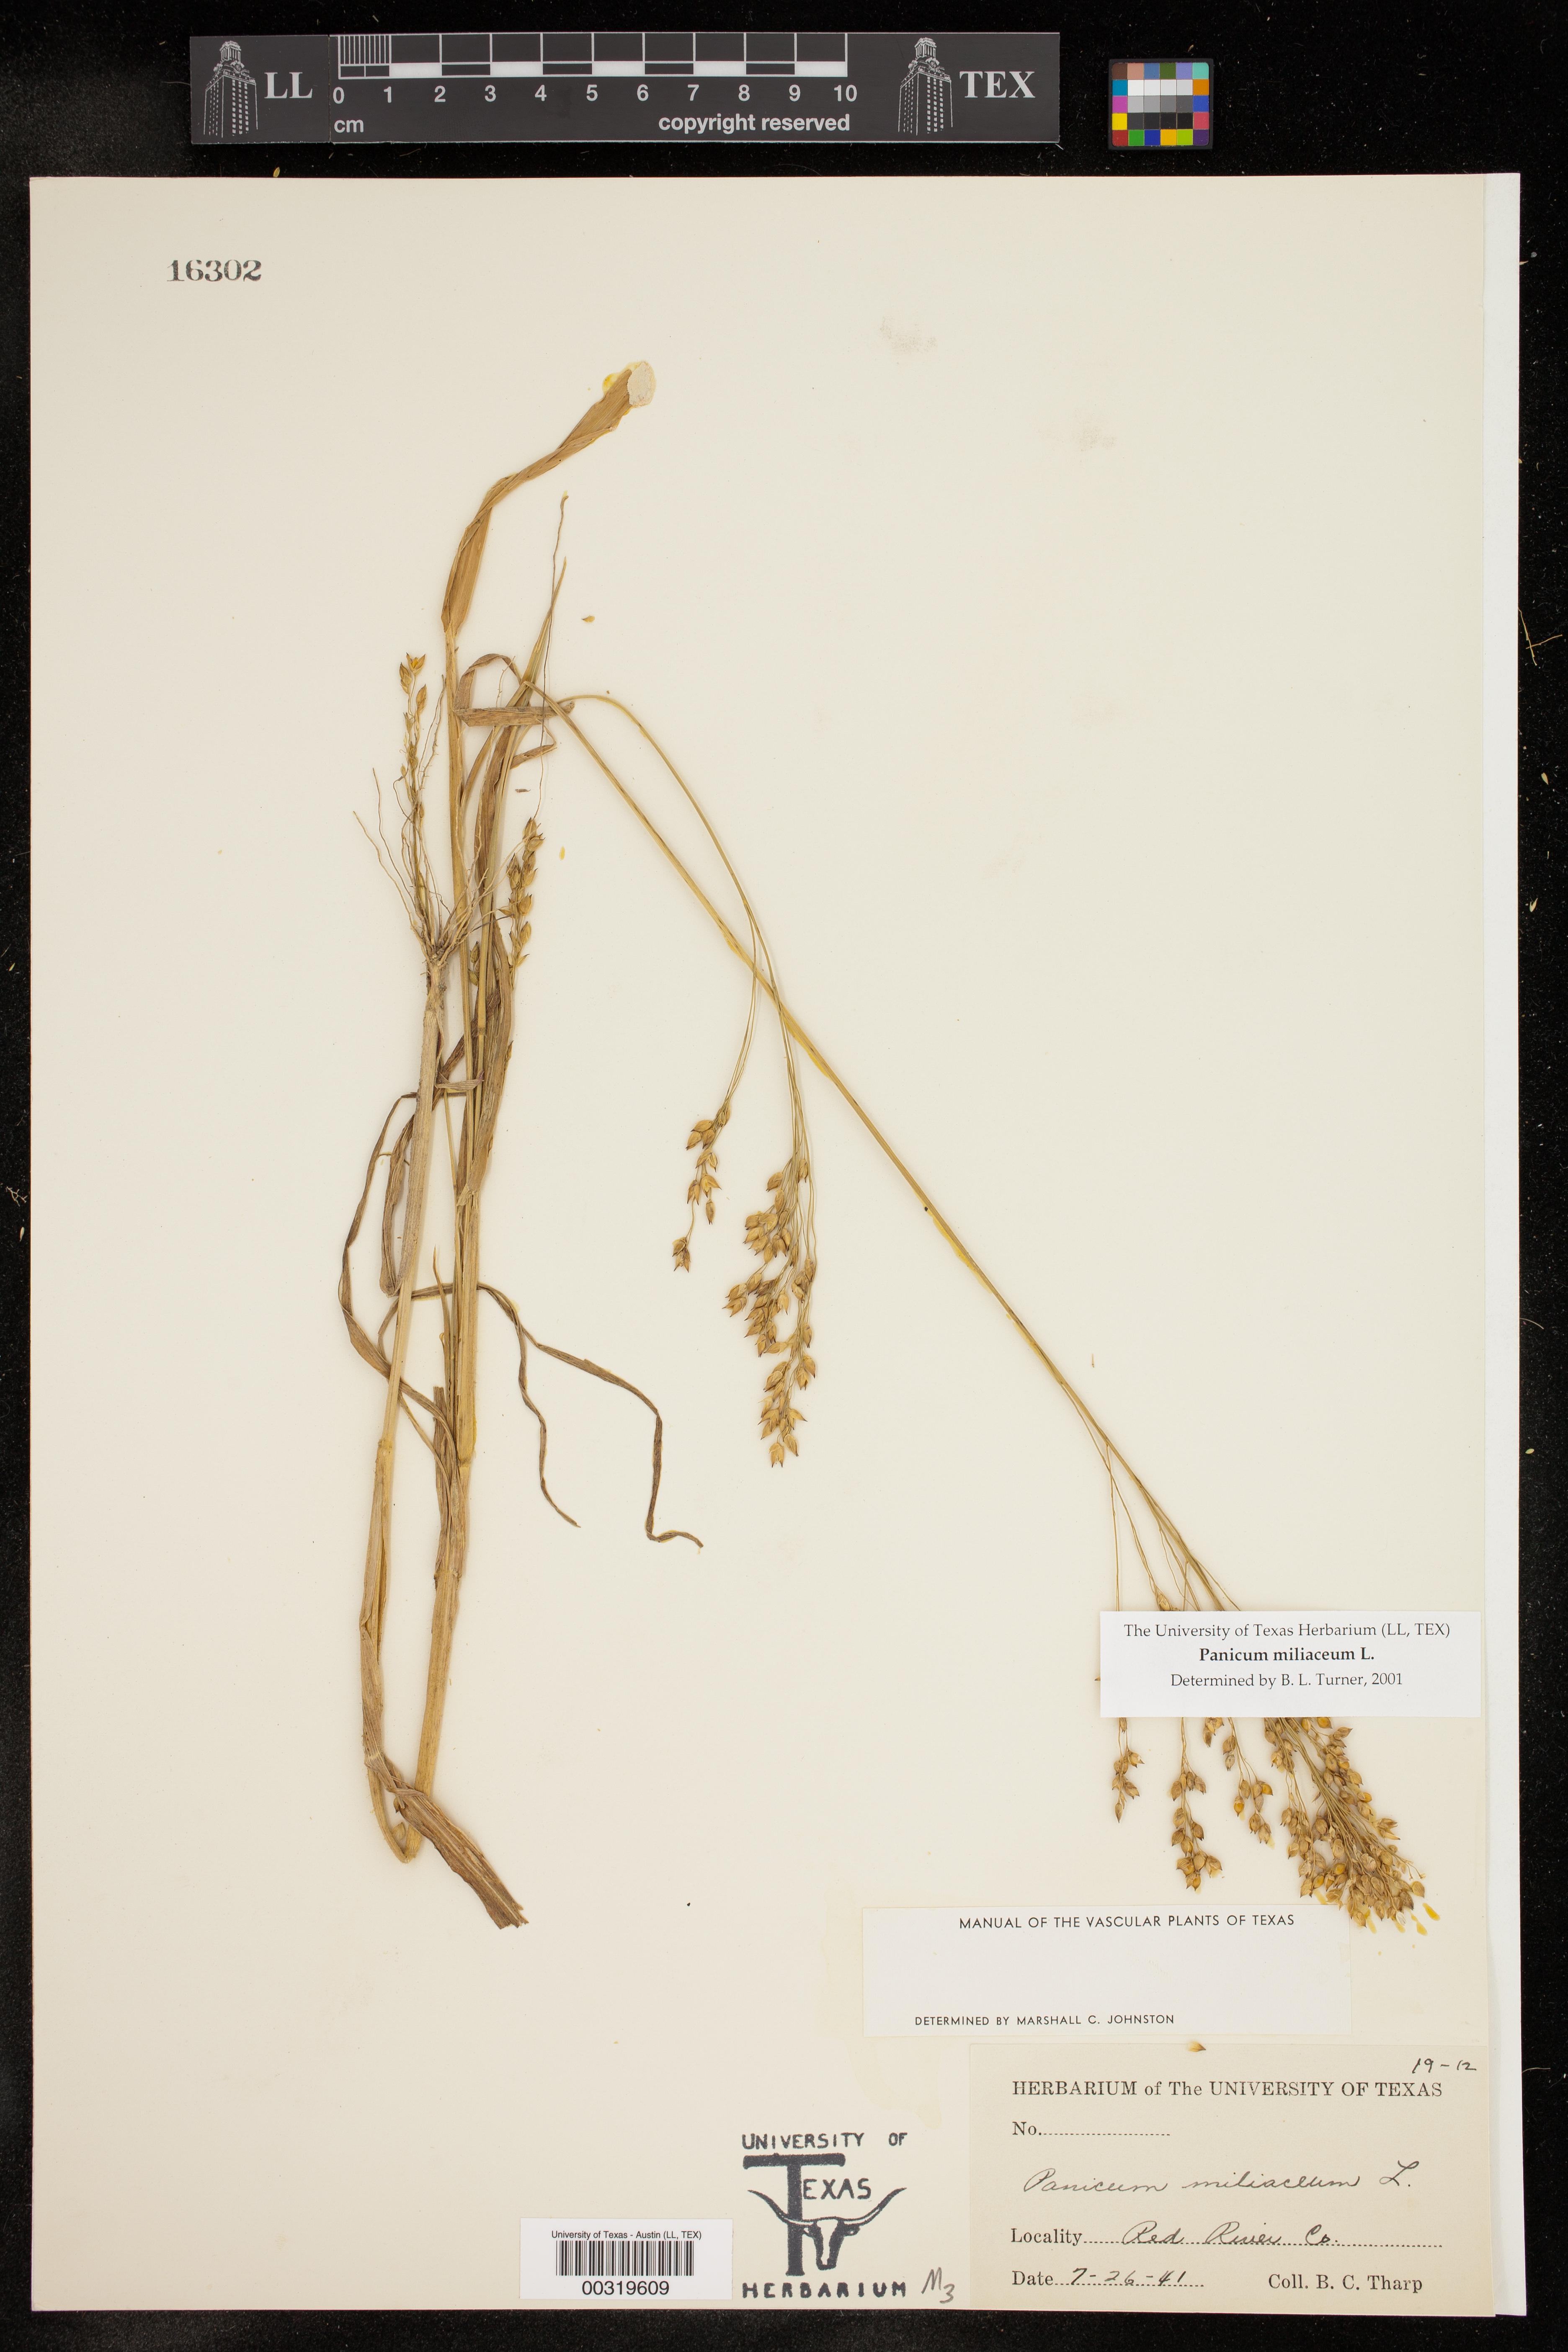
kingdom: Plantae
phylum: Tracheophyta
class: Liliopsida
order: Poales
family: Poaceae
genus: Panicum
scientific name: Panicum miliaceum
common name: Common millet
